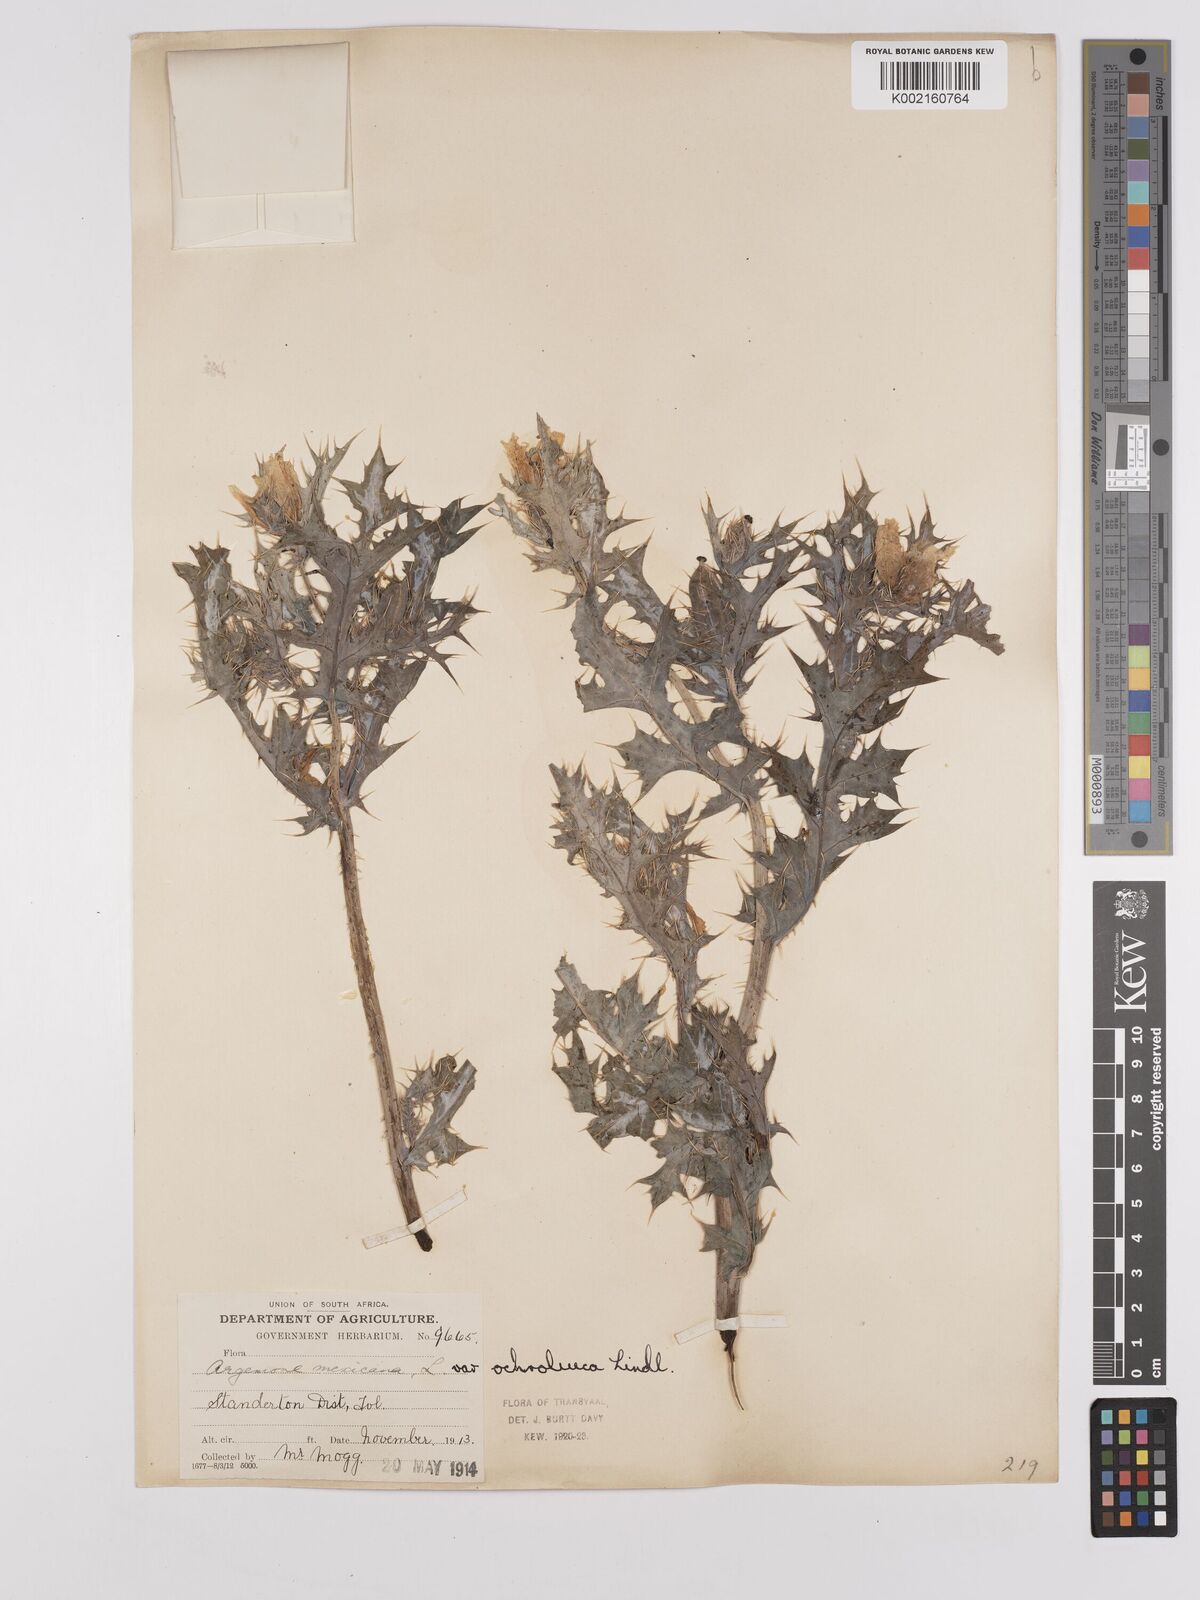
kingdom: Plantae
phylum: Tracheophyta
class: Magnoliopsida
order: Ranunculales
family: Papaveraceae
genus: Argemone
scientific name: Argemone mexicana
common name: Mexican poppy
